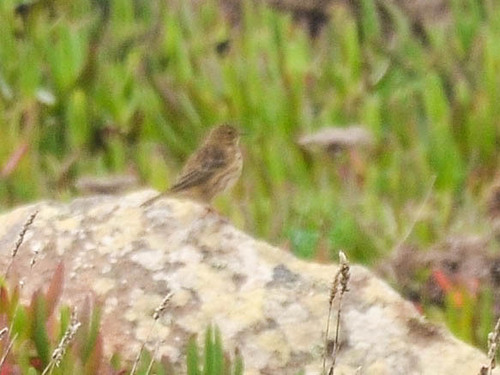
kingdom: Animalia
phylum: Chordata
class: Aves
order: Passeriformes
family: Motacillidae
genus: Anthus
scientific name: Anthus pratensis
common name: Meadow pipit
